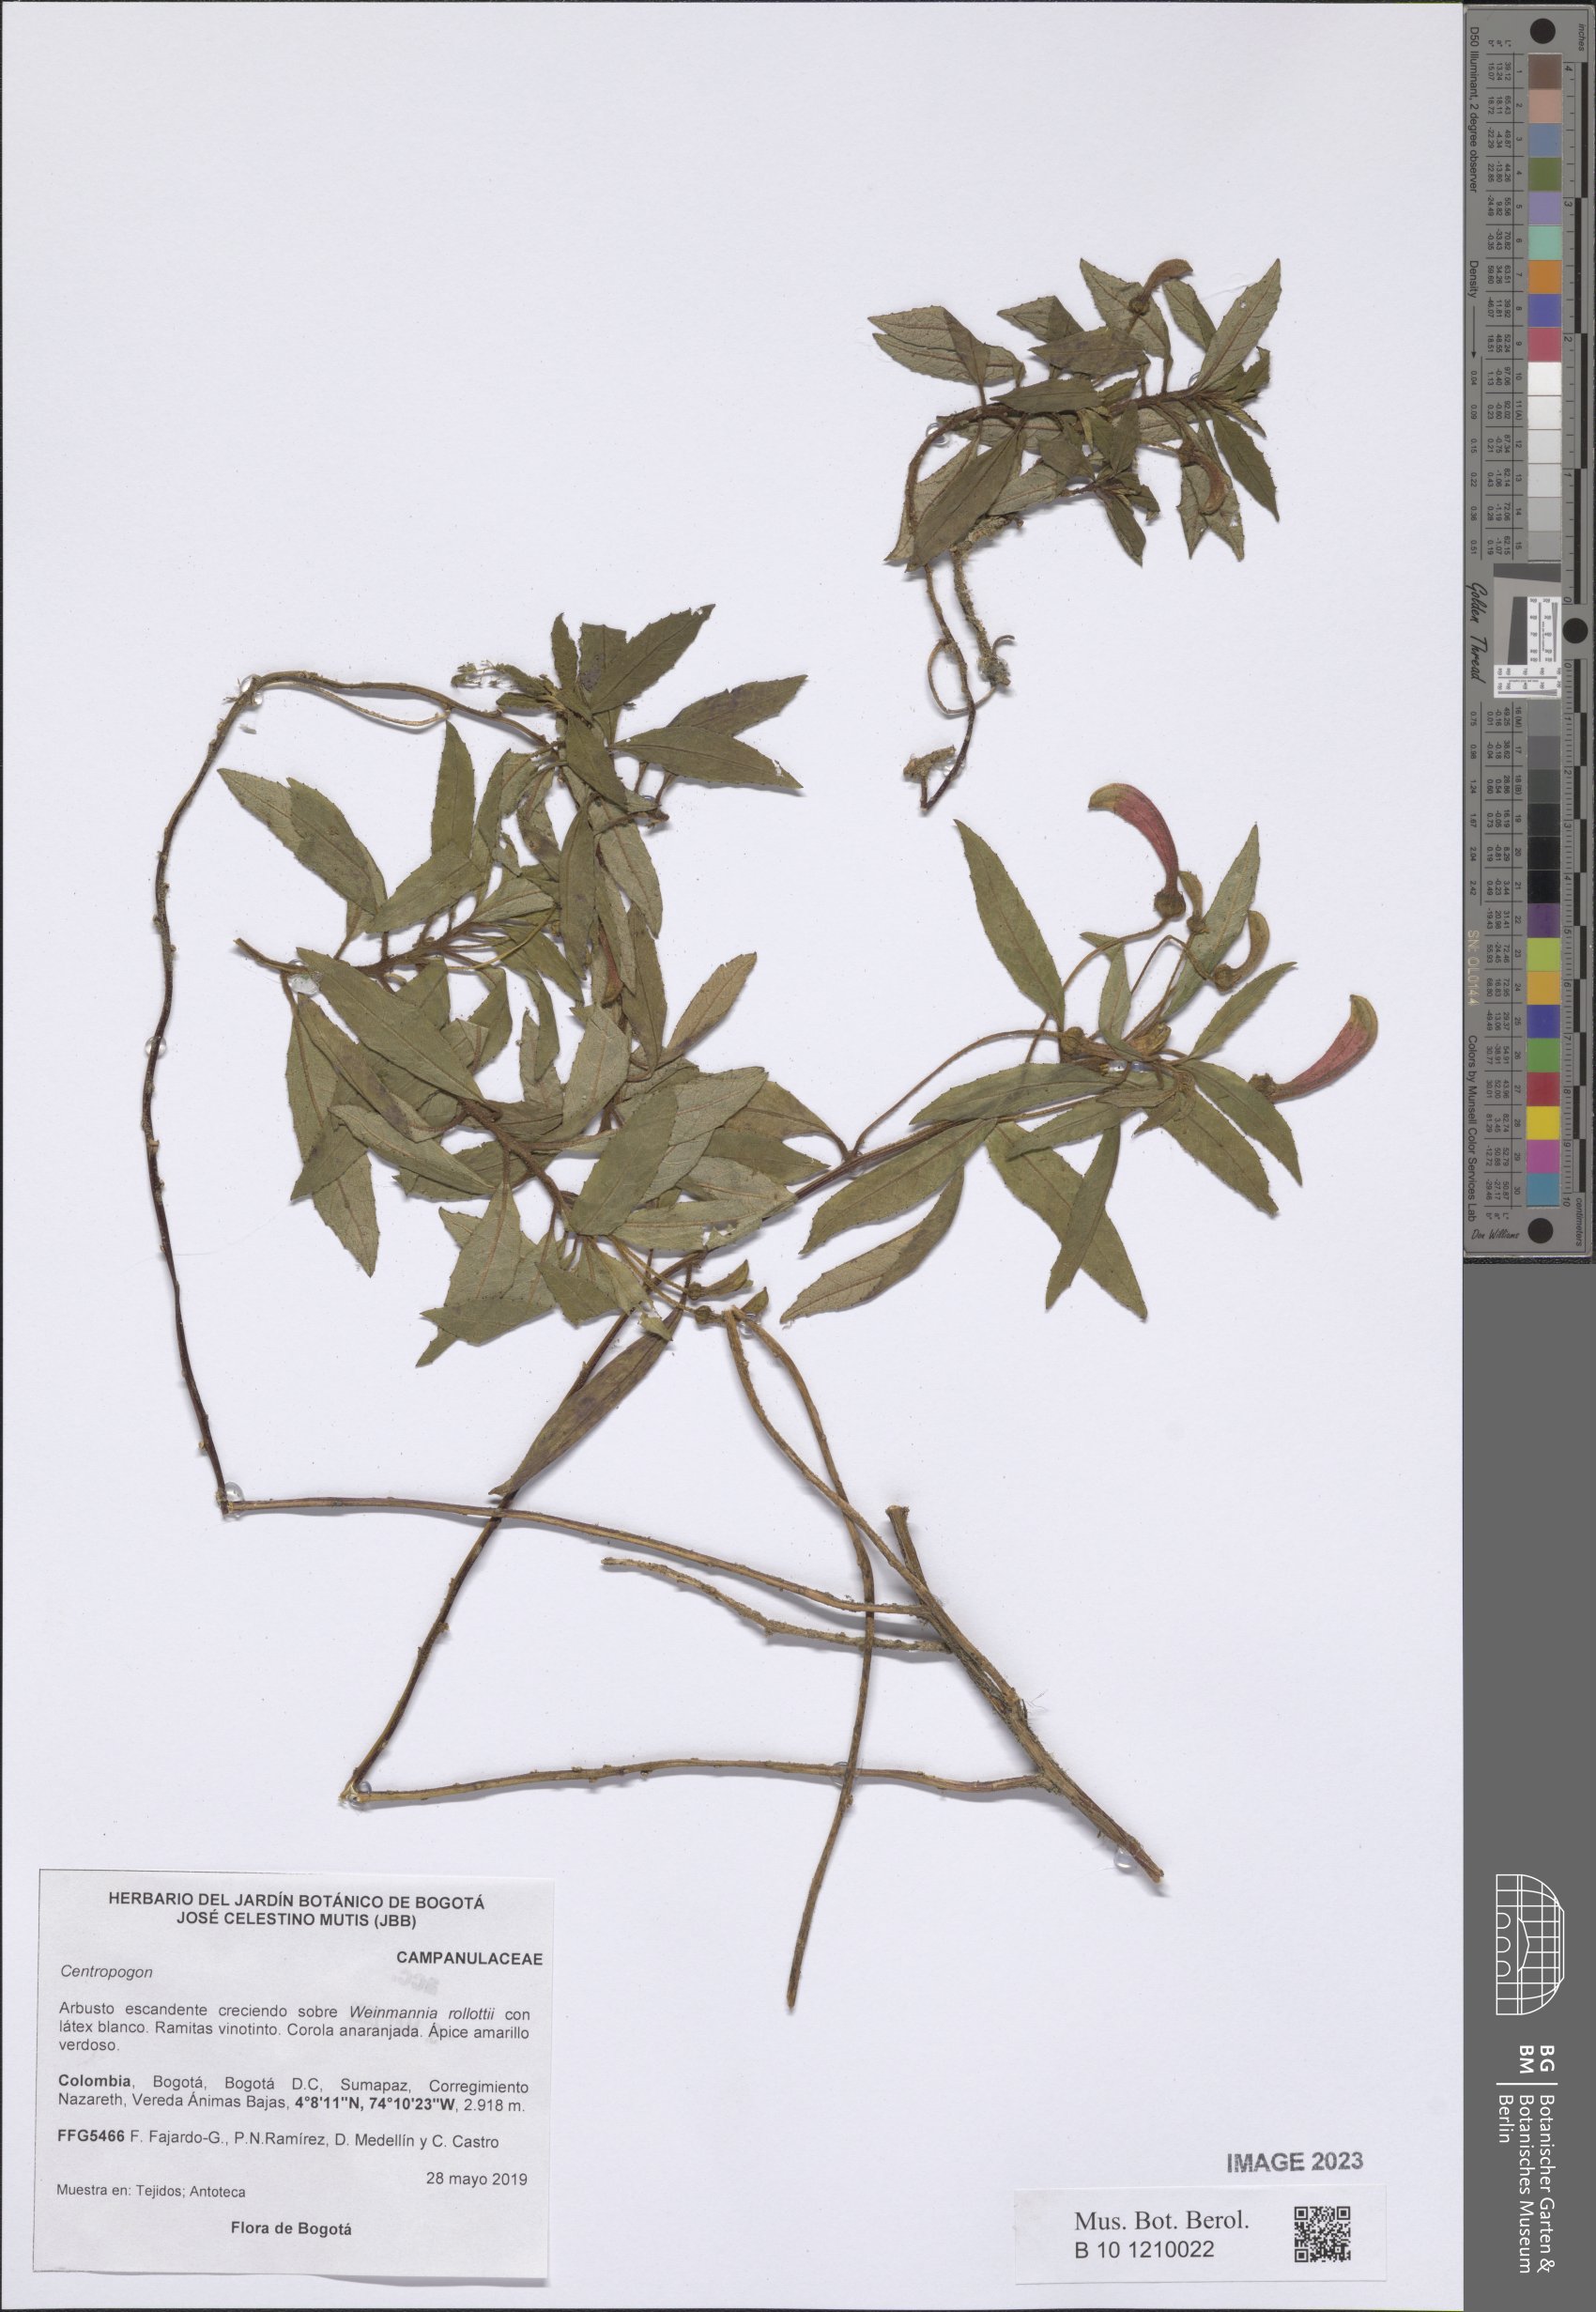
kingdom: Plantae
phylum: Tracheophyta
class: Magnoliopsida
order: Asterales
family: Campanulaceae
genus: Centropogon
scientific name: Centropogon
